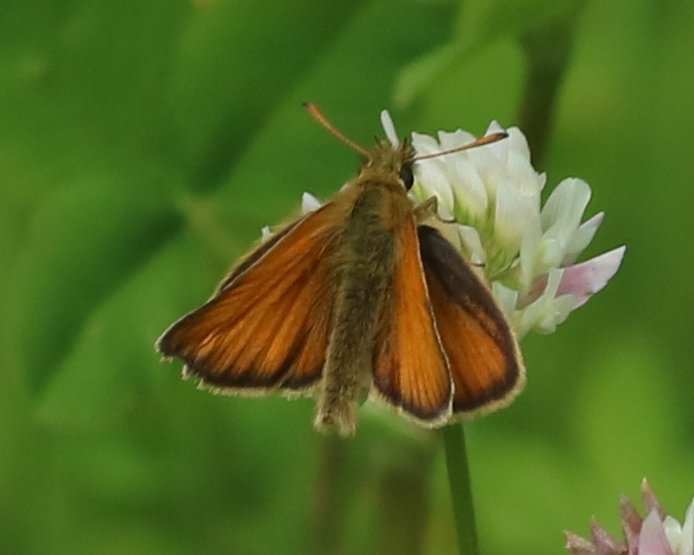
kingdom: Animalia
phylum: Arthropoda
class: Insecta
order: Lepidoptera
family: Hesperiidae
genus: Thymelicus
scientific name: Thymelicus lineola
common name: European Skipper
